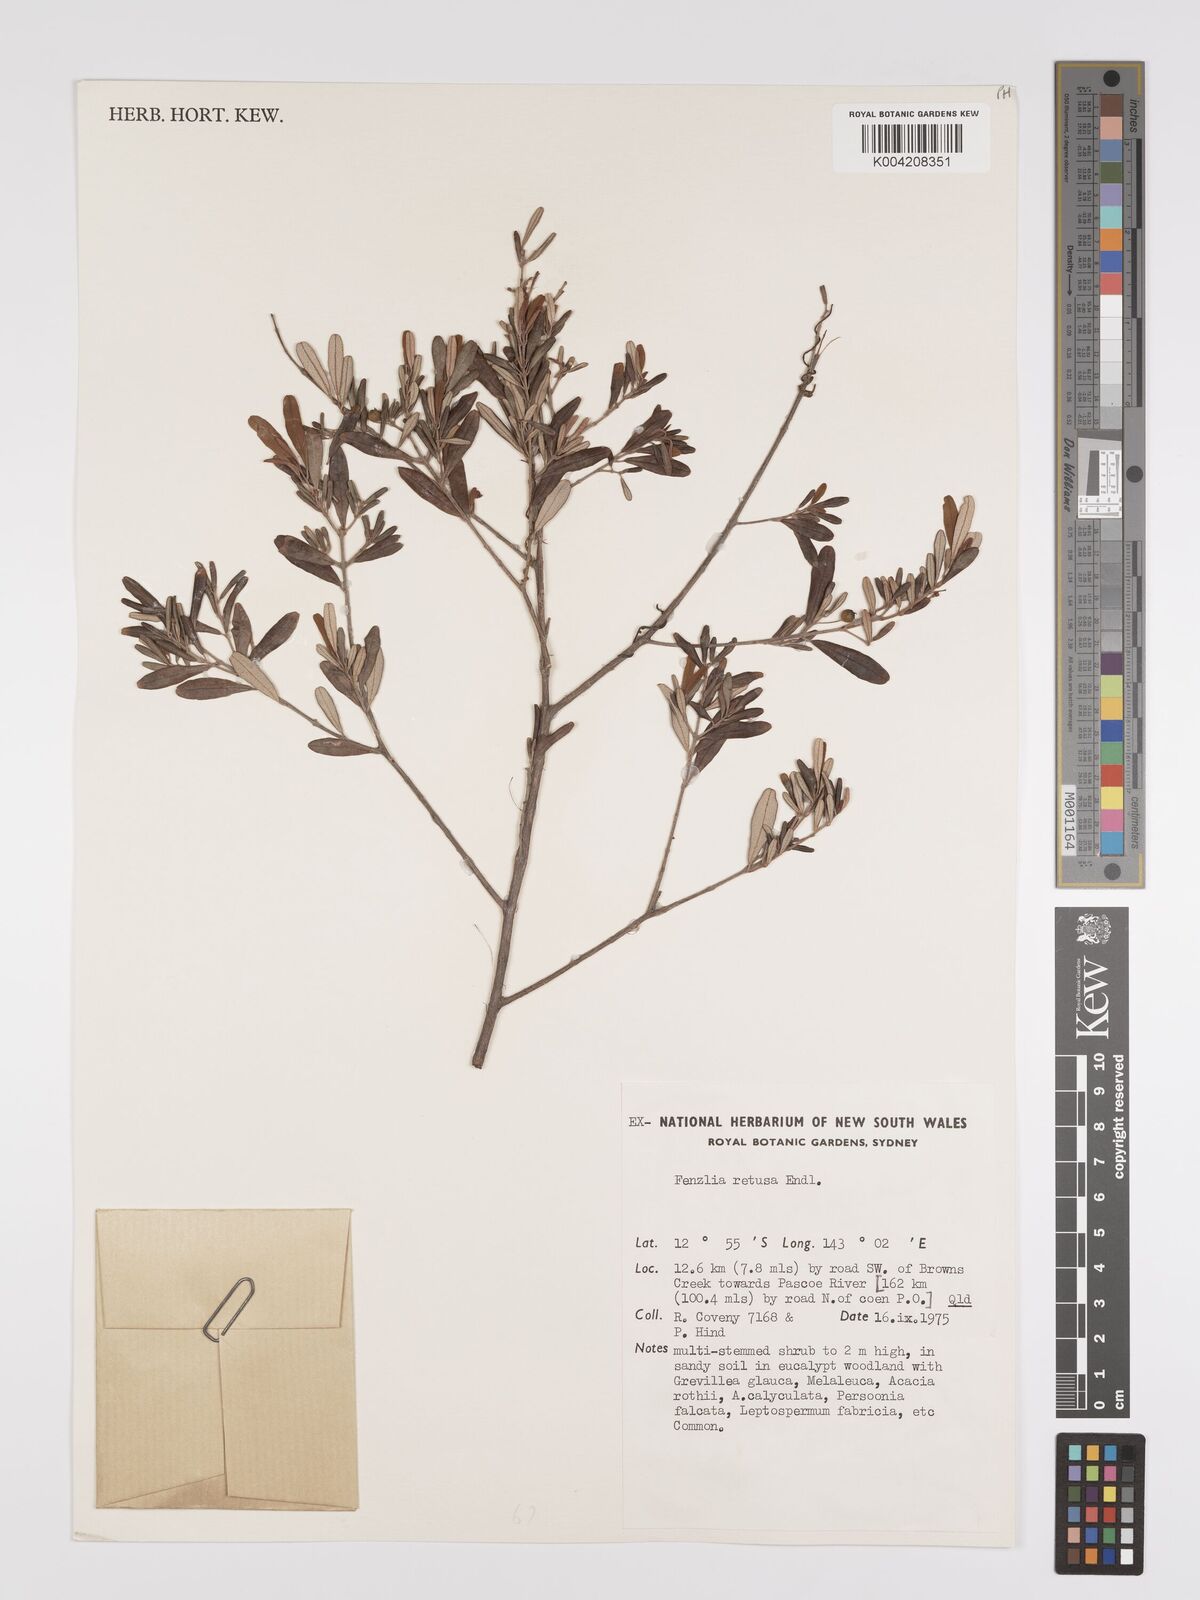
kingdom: Plantae
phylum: Tracheophyta
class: Magnoliopsida
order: Myrtales
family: Myrtaceae
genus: Lithomyrtus
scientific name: Lithomyrtus retusa
